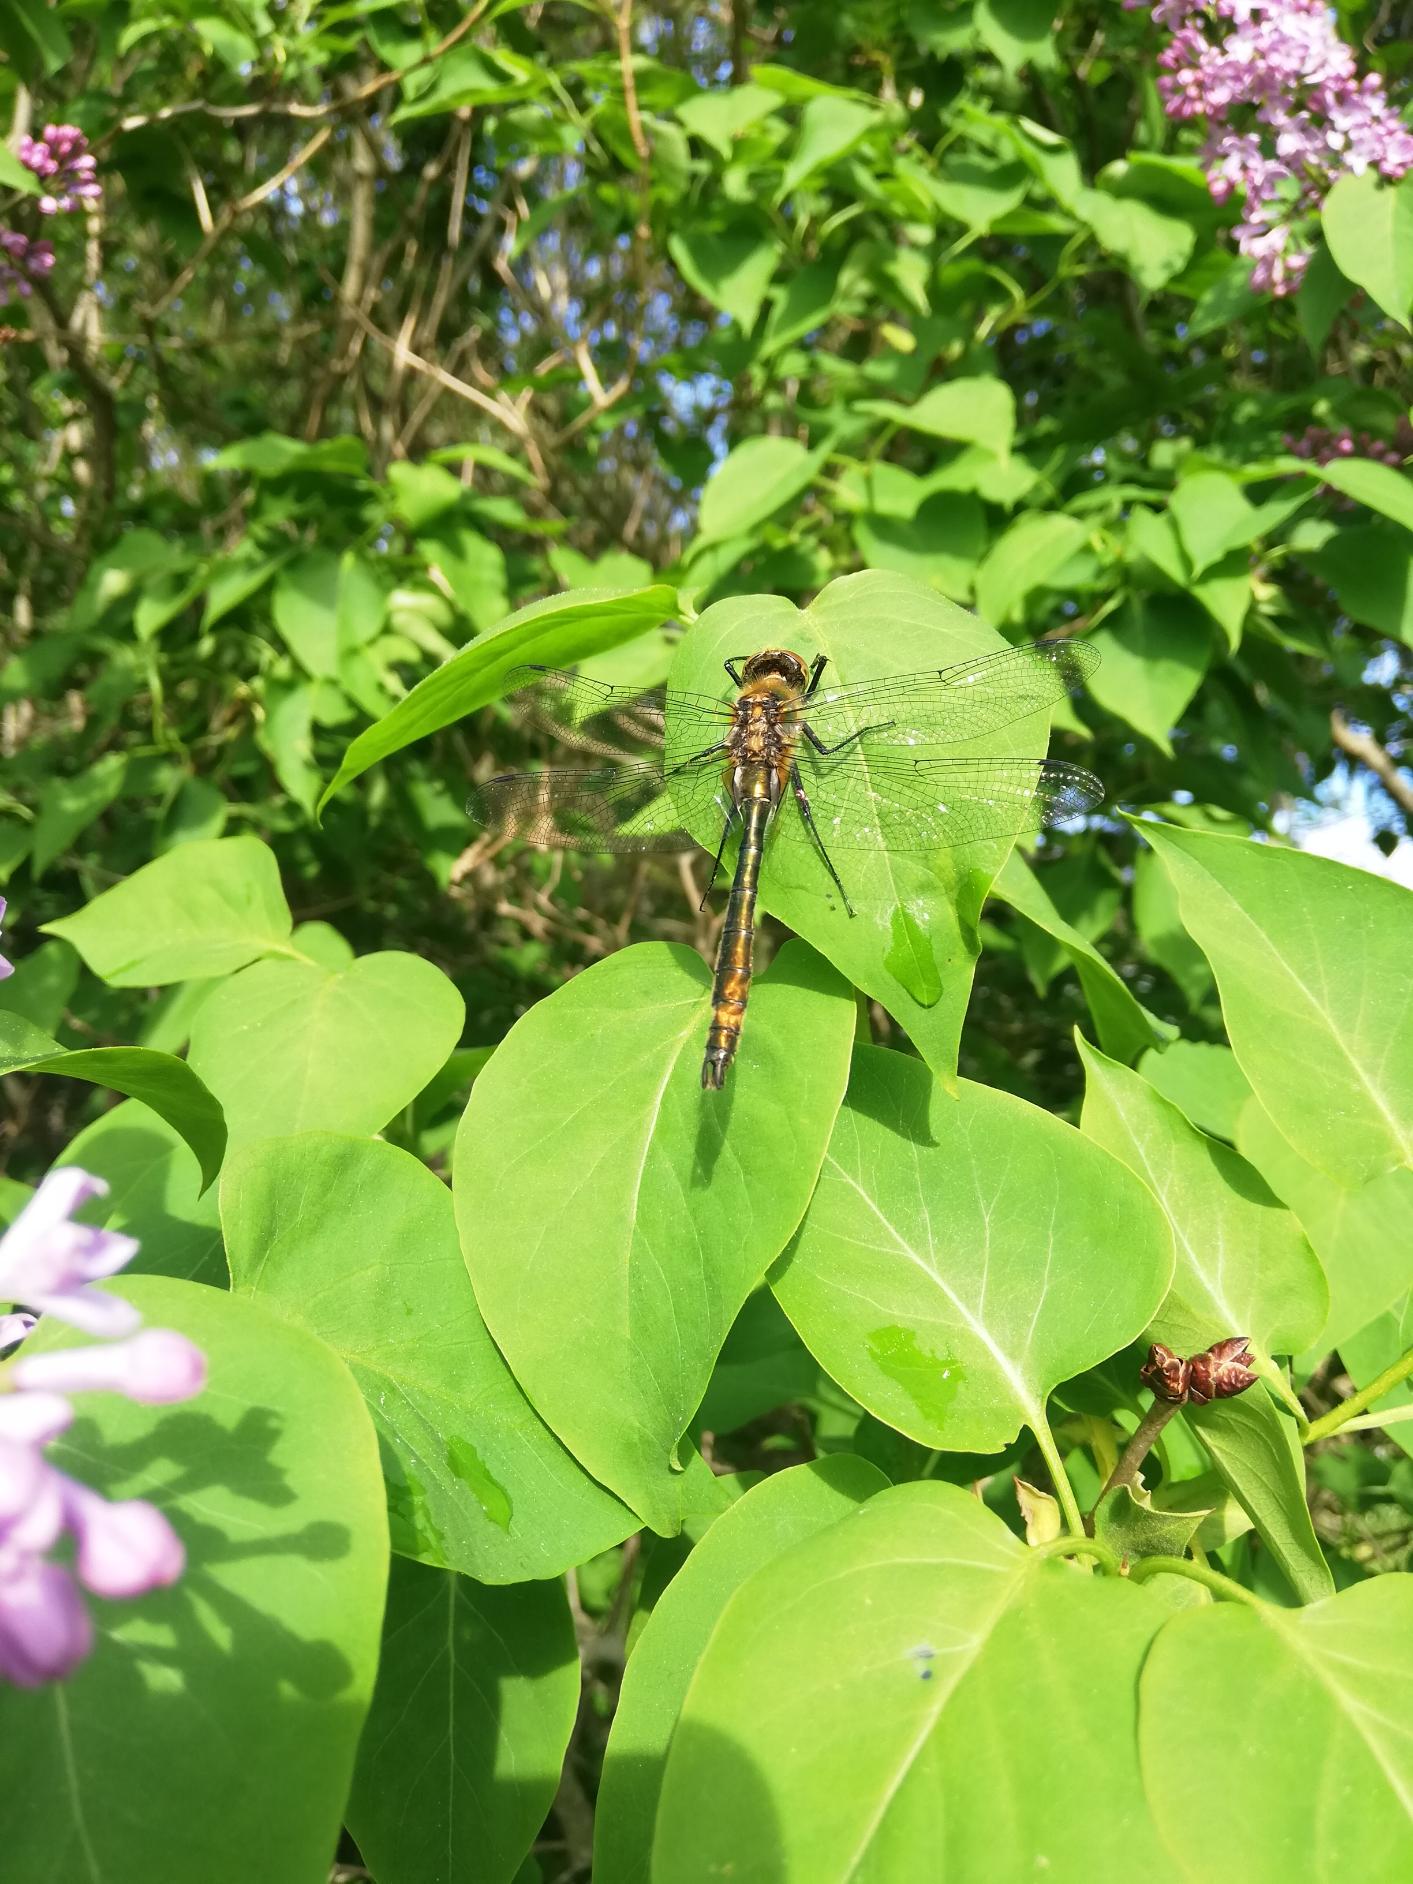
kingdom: Animalia
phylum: Arthropoda
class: Insecta
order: Odonata
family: Corduliidae
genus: Cordulia
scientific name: Cordulia aenea
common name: Grøn smaragdlibel
